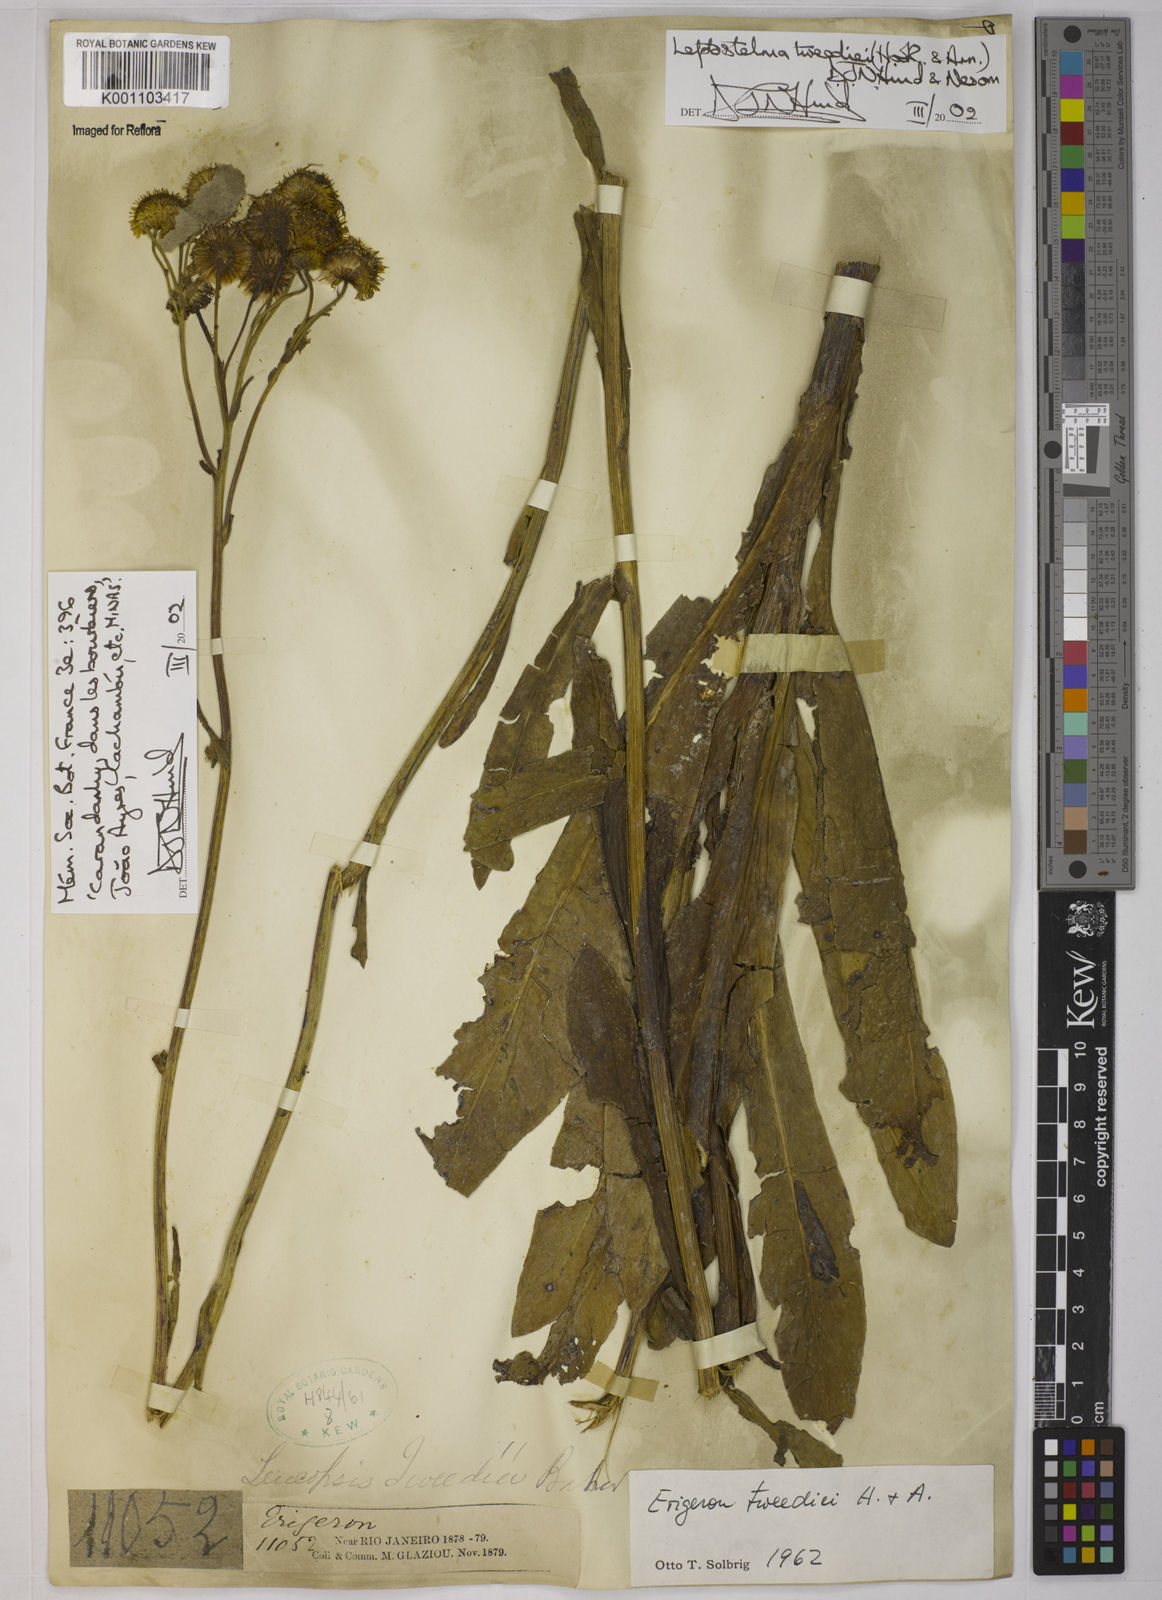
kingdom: Plantae
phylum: Tracheophyta
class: Magnoliopsida
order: Asterales
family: Asteraceae
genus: Leptostelma
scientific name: Leptostelma tweediei
